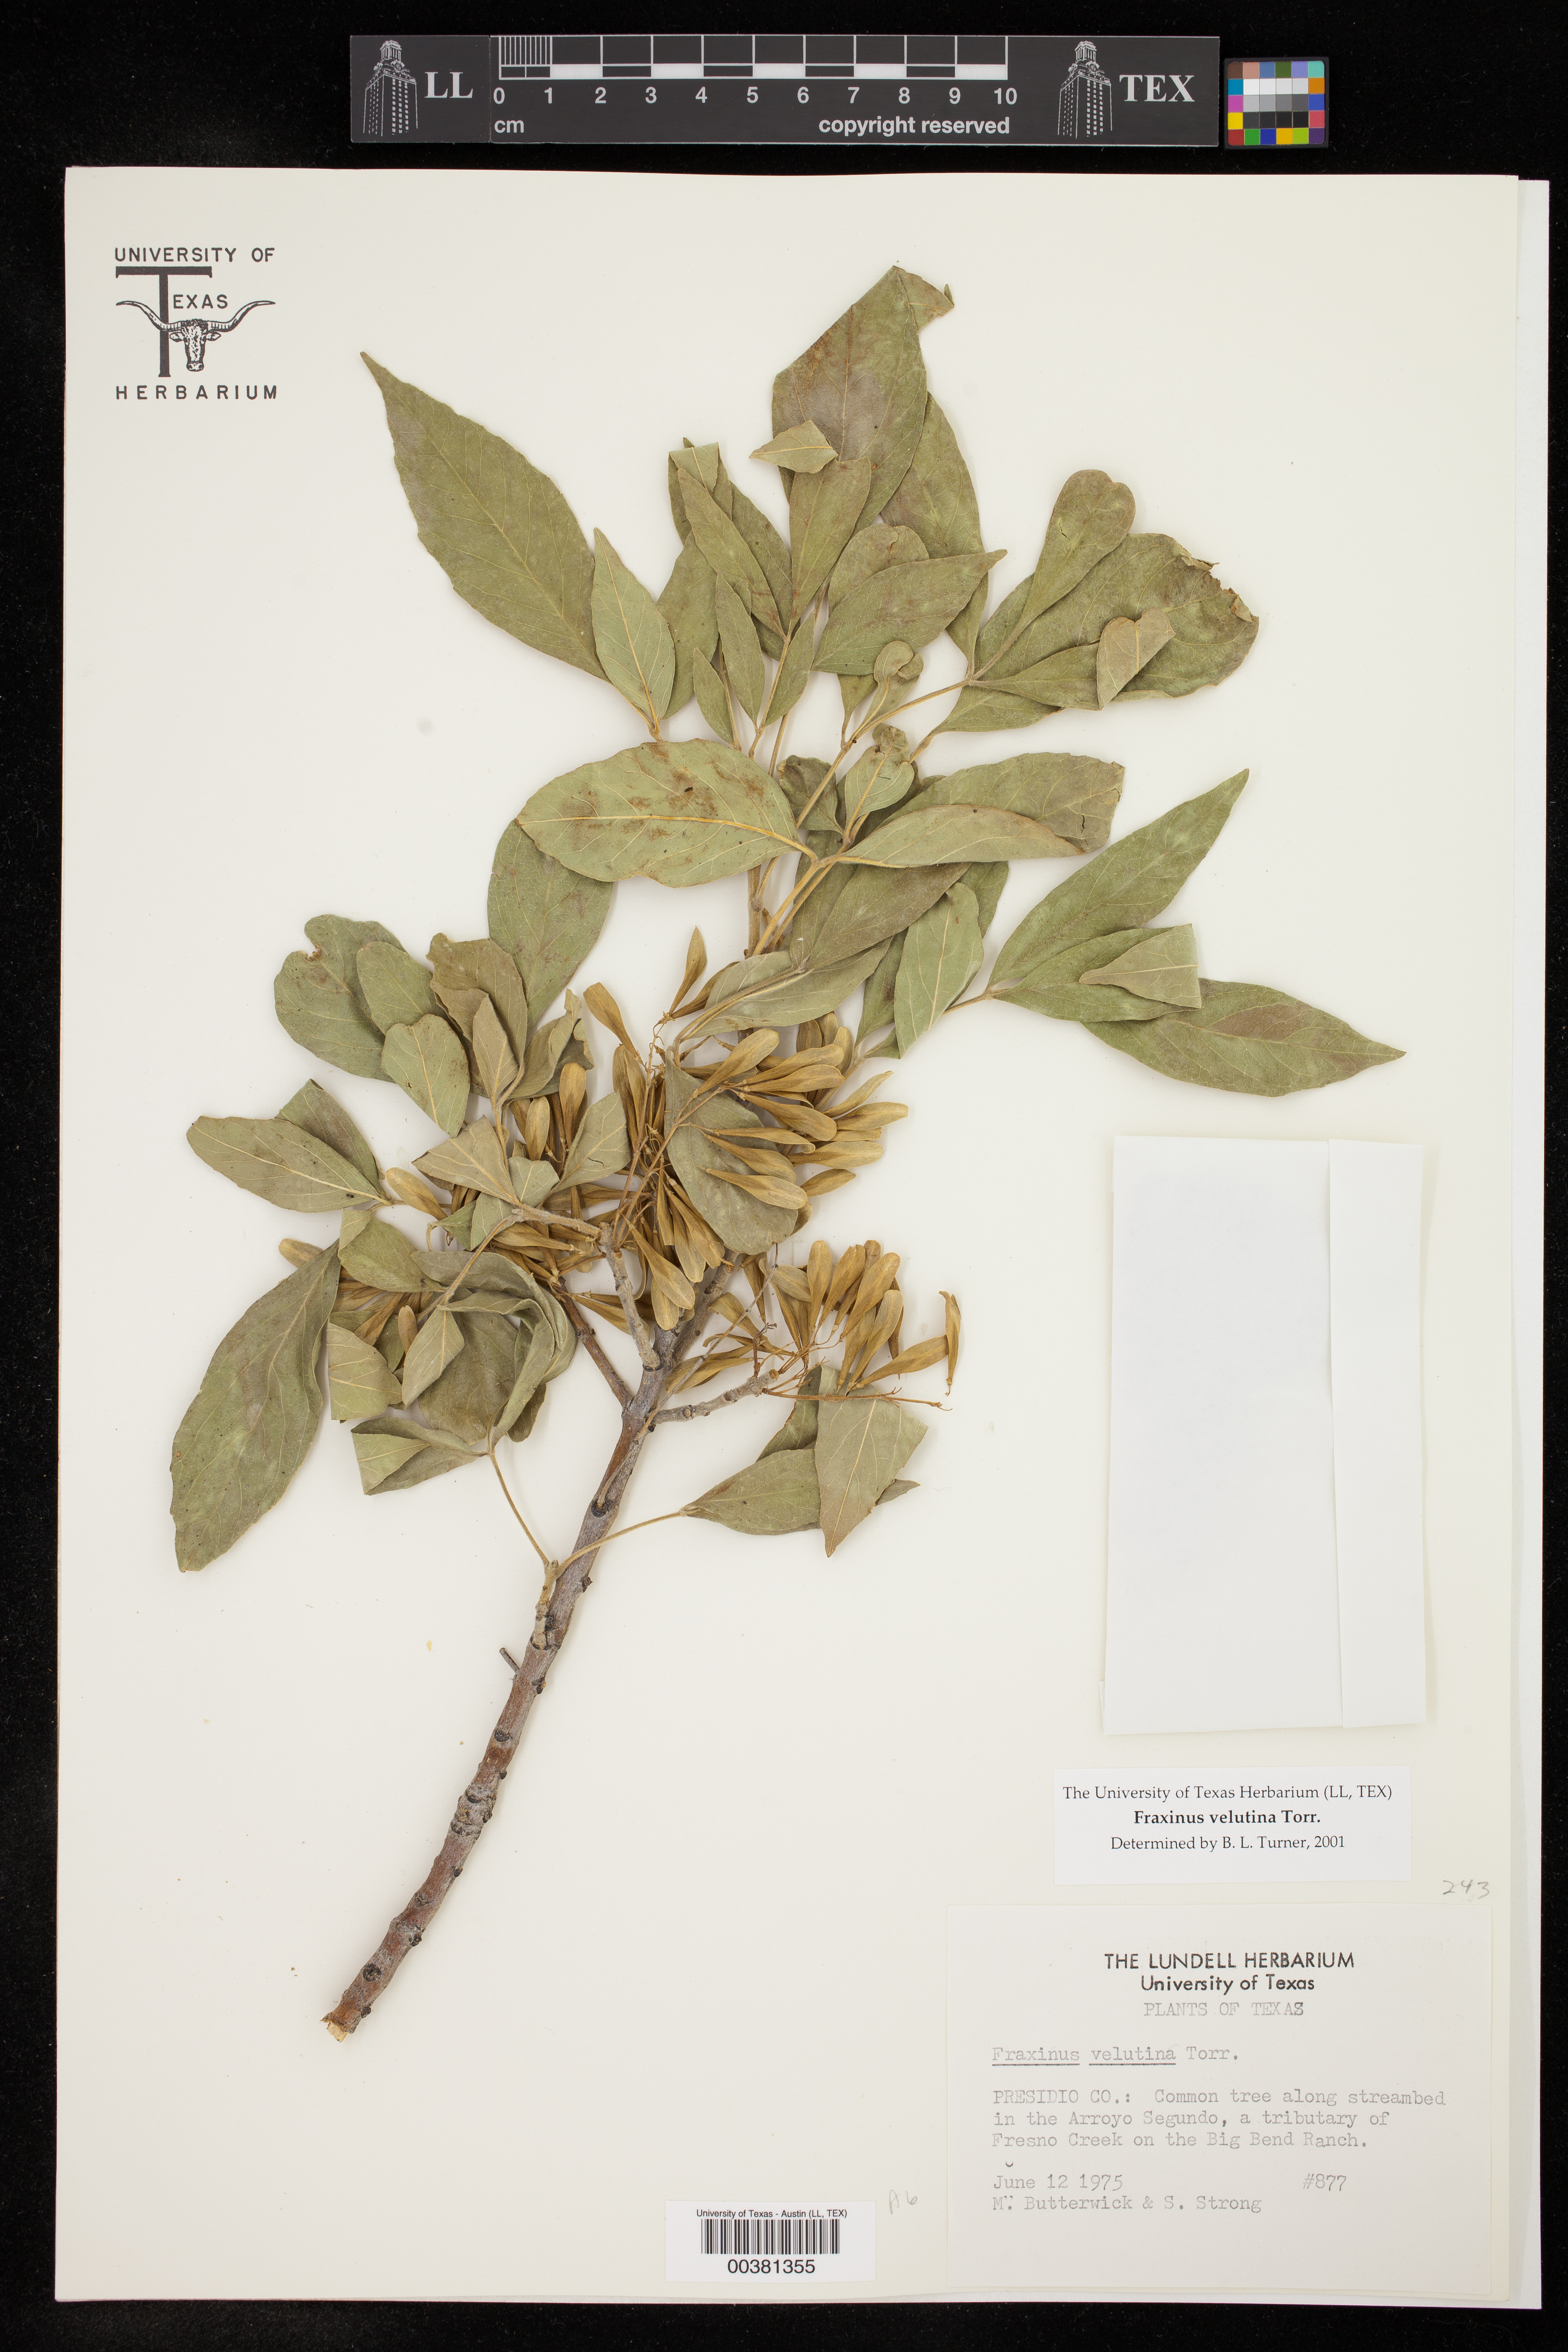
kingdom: Plantae
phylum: Tracheophyta
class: Magnoliopsida
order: Lamiales
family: Oleaceae
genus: Fraxinus
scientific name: Fraxinus velutina
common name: Arizon ash
